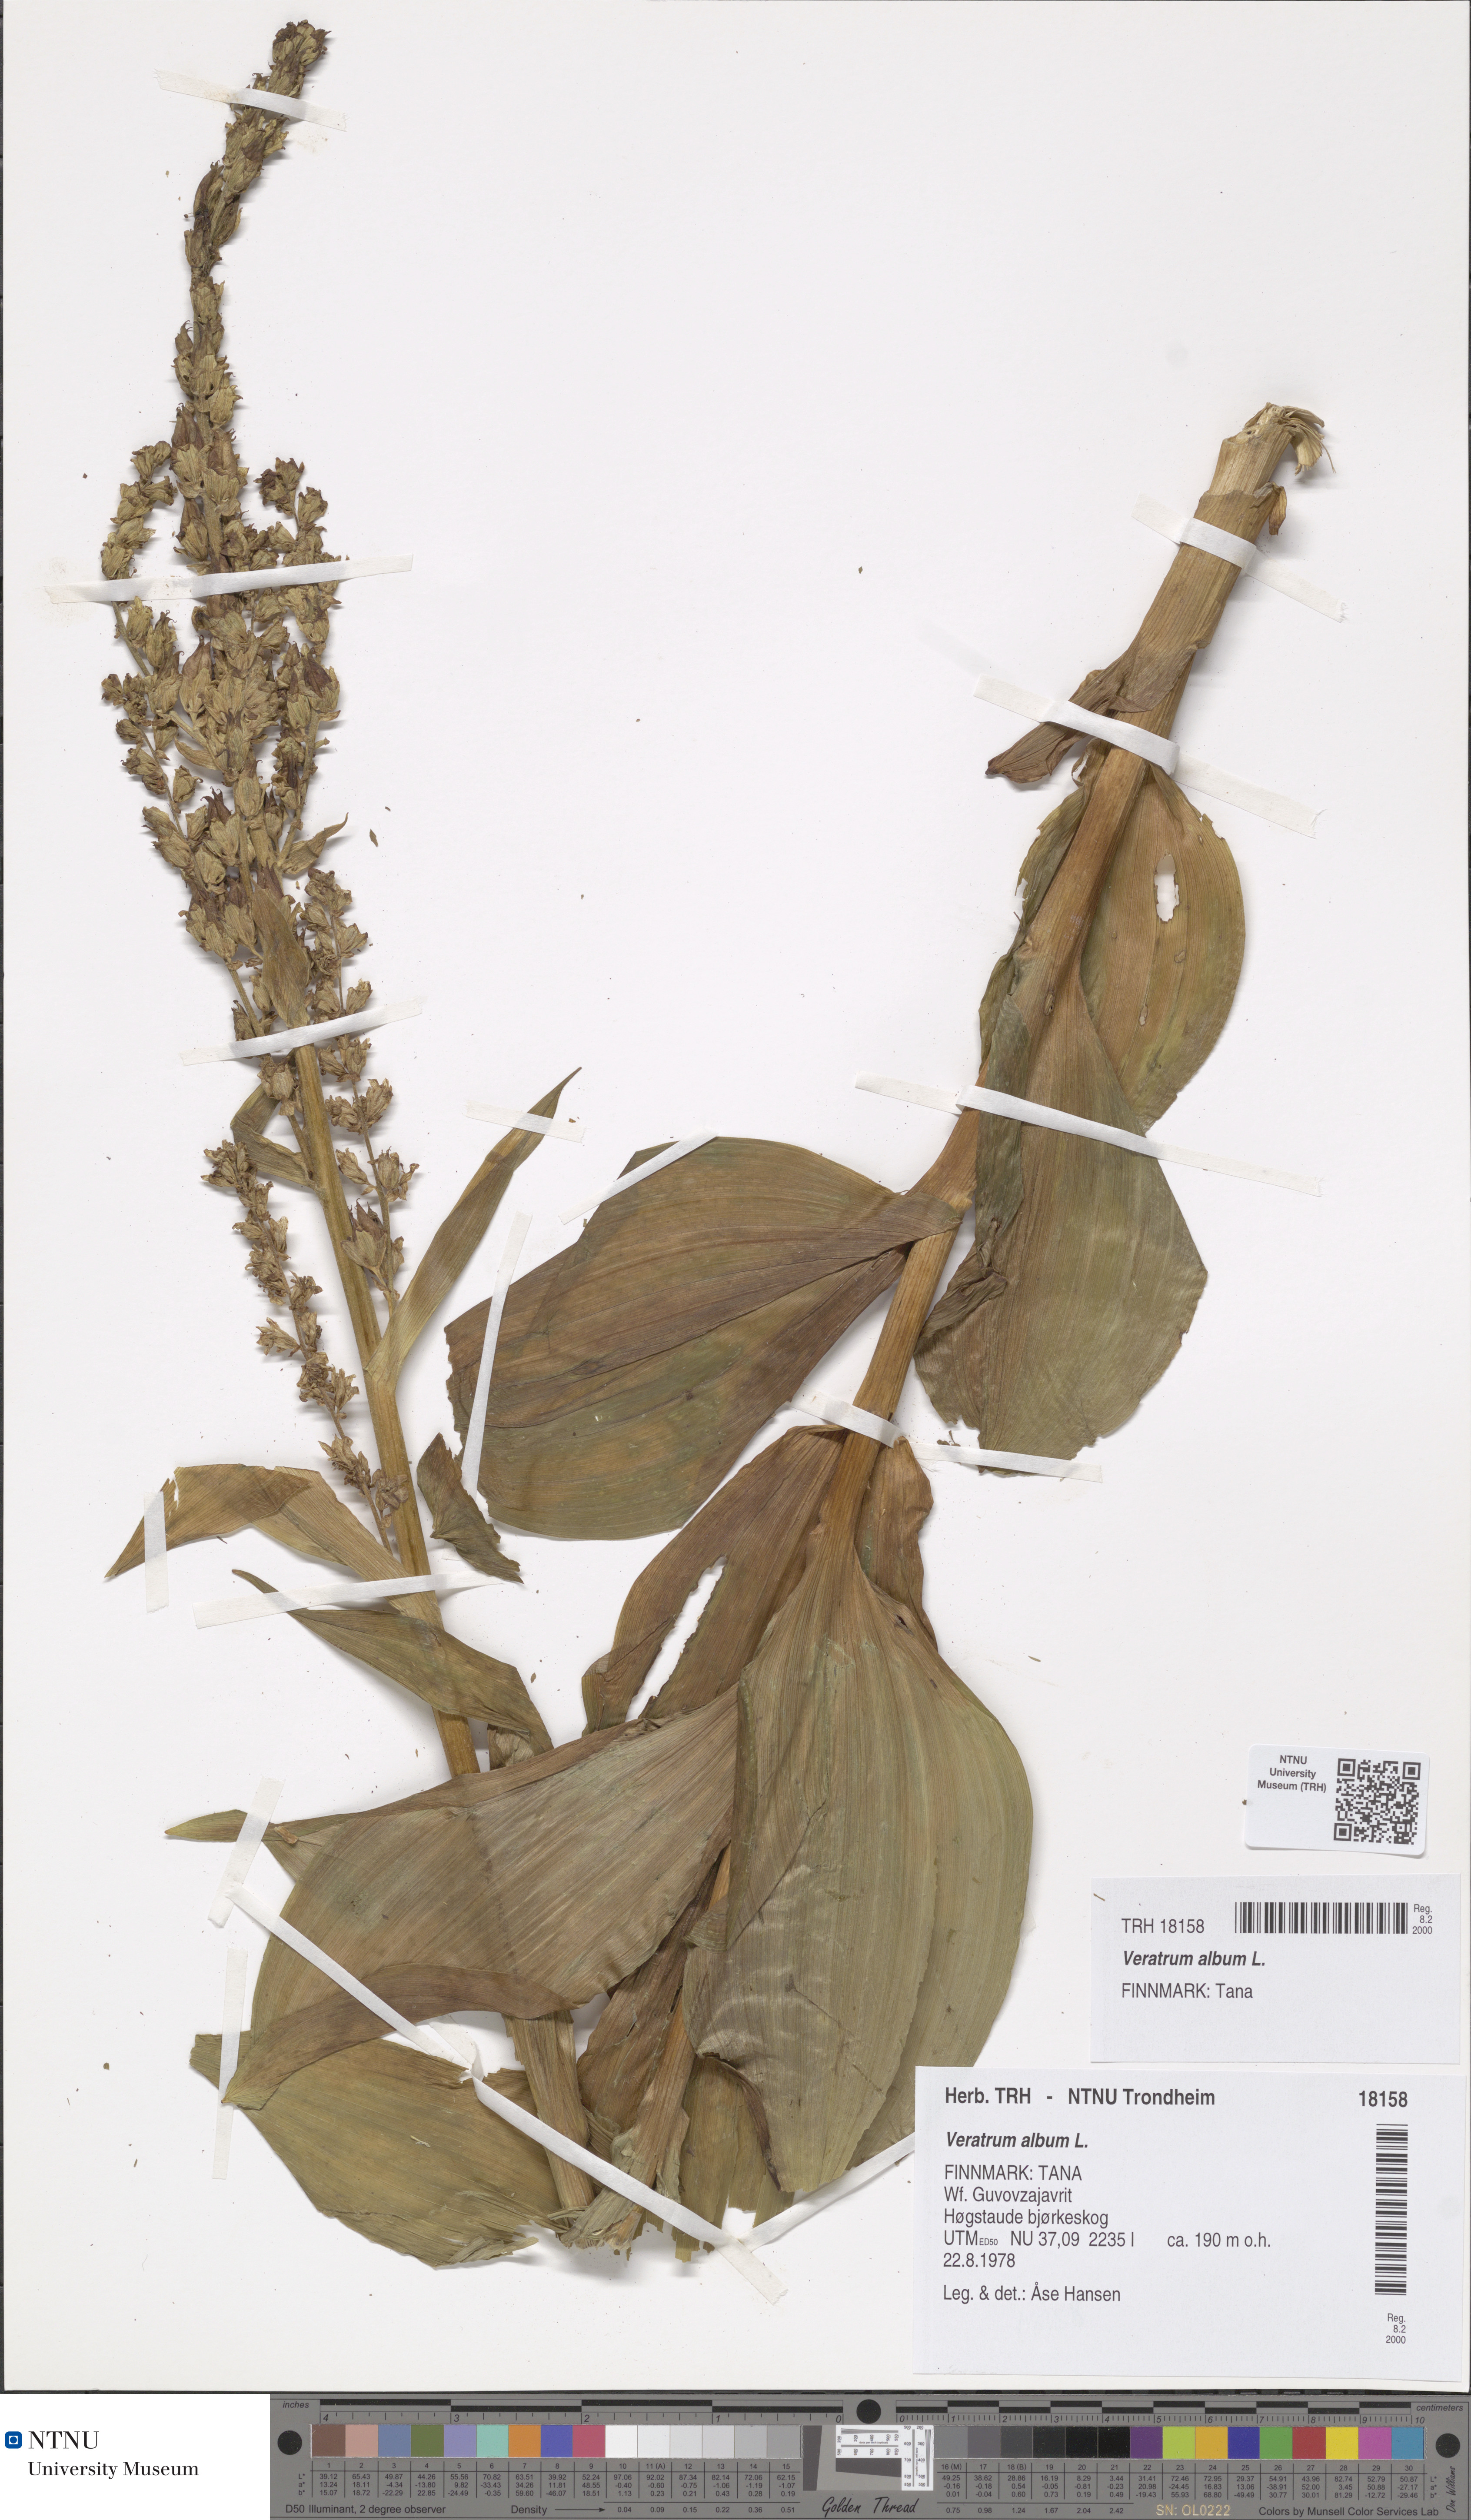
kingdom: Plantae
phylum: Tracheophyta
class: Liliopsida
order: Liliales
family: Melanthiaceae
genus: Veratrum
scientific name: Veratrum album
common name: White veratrum
